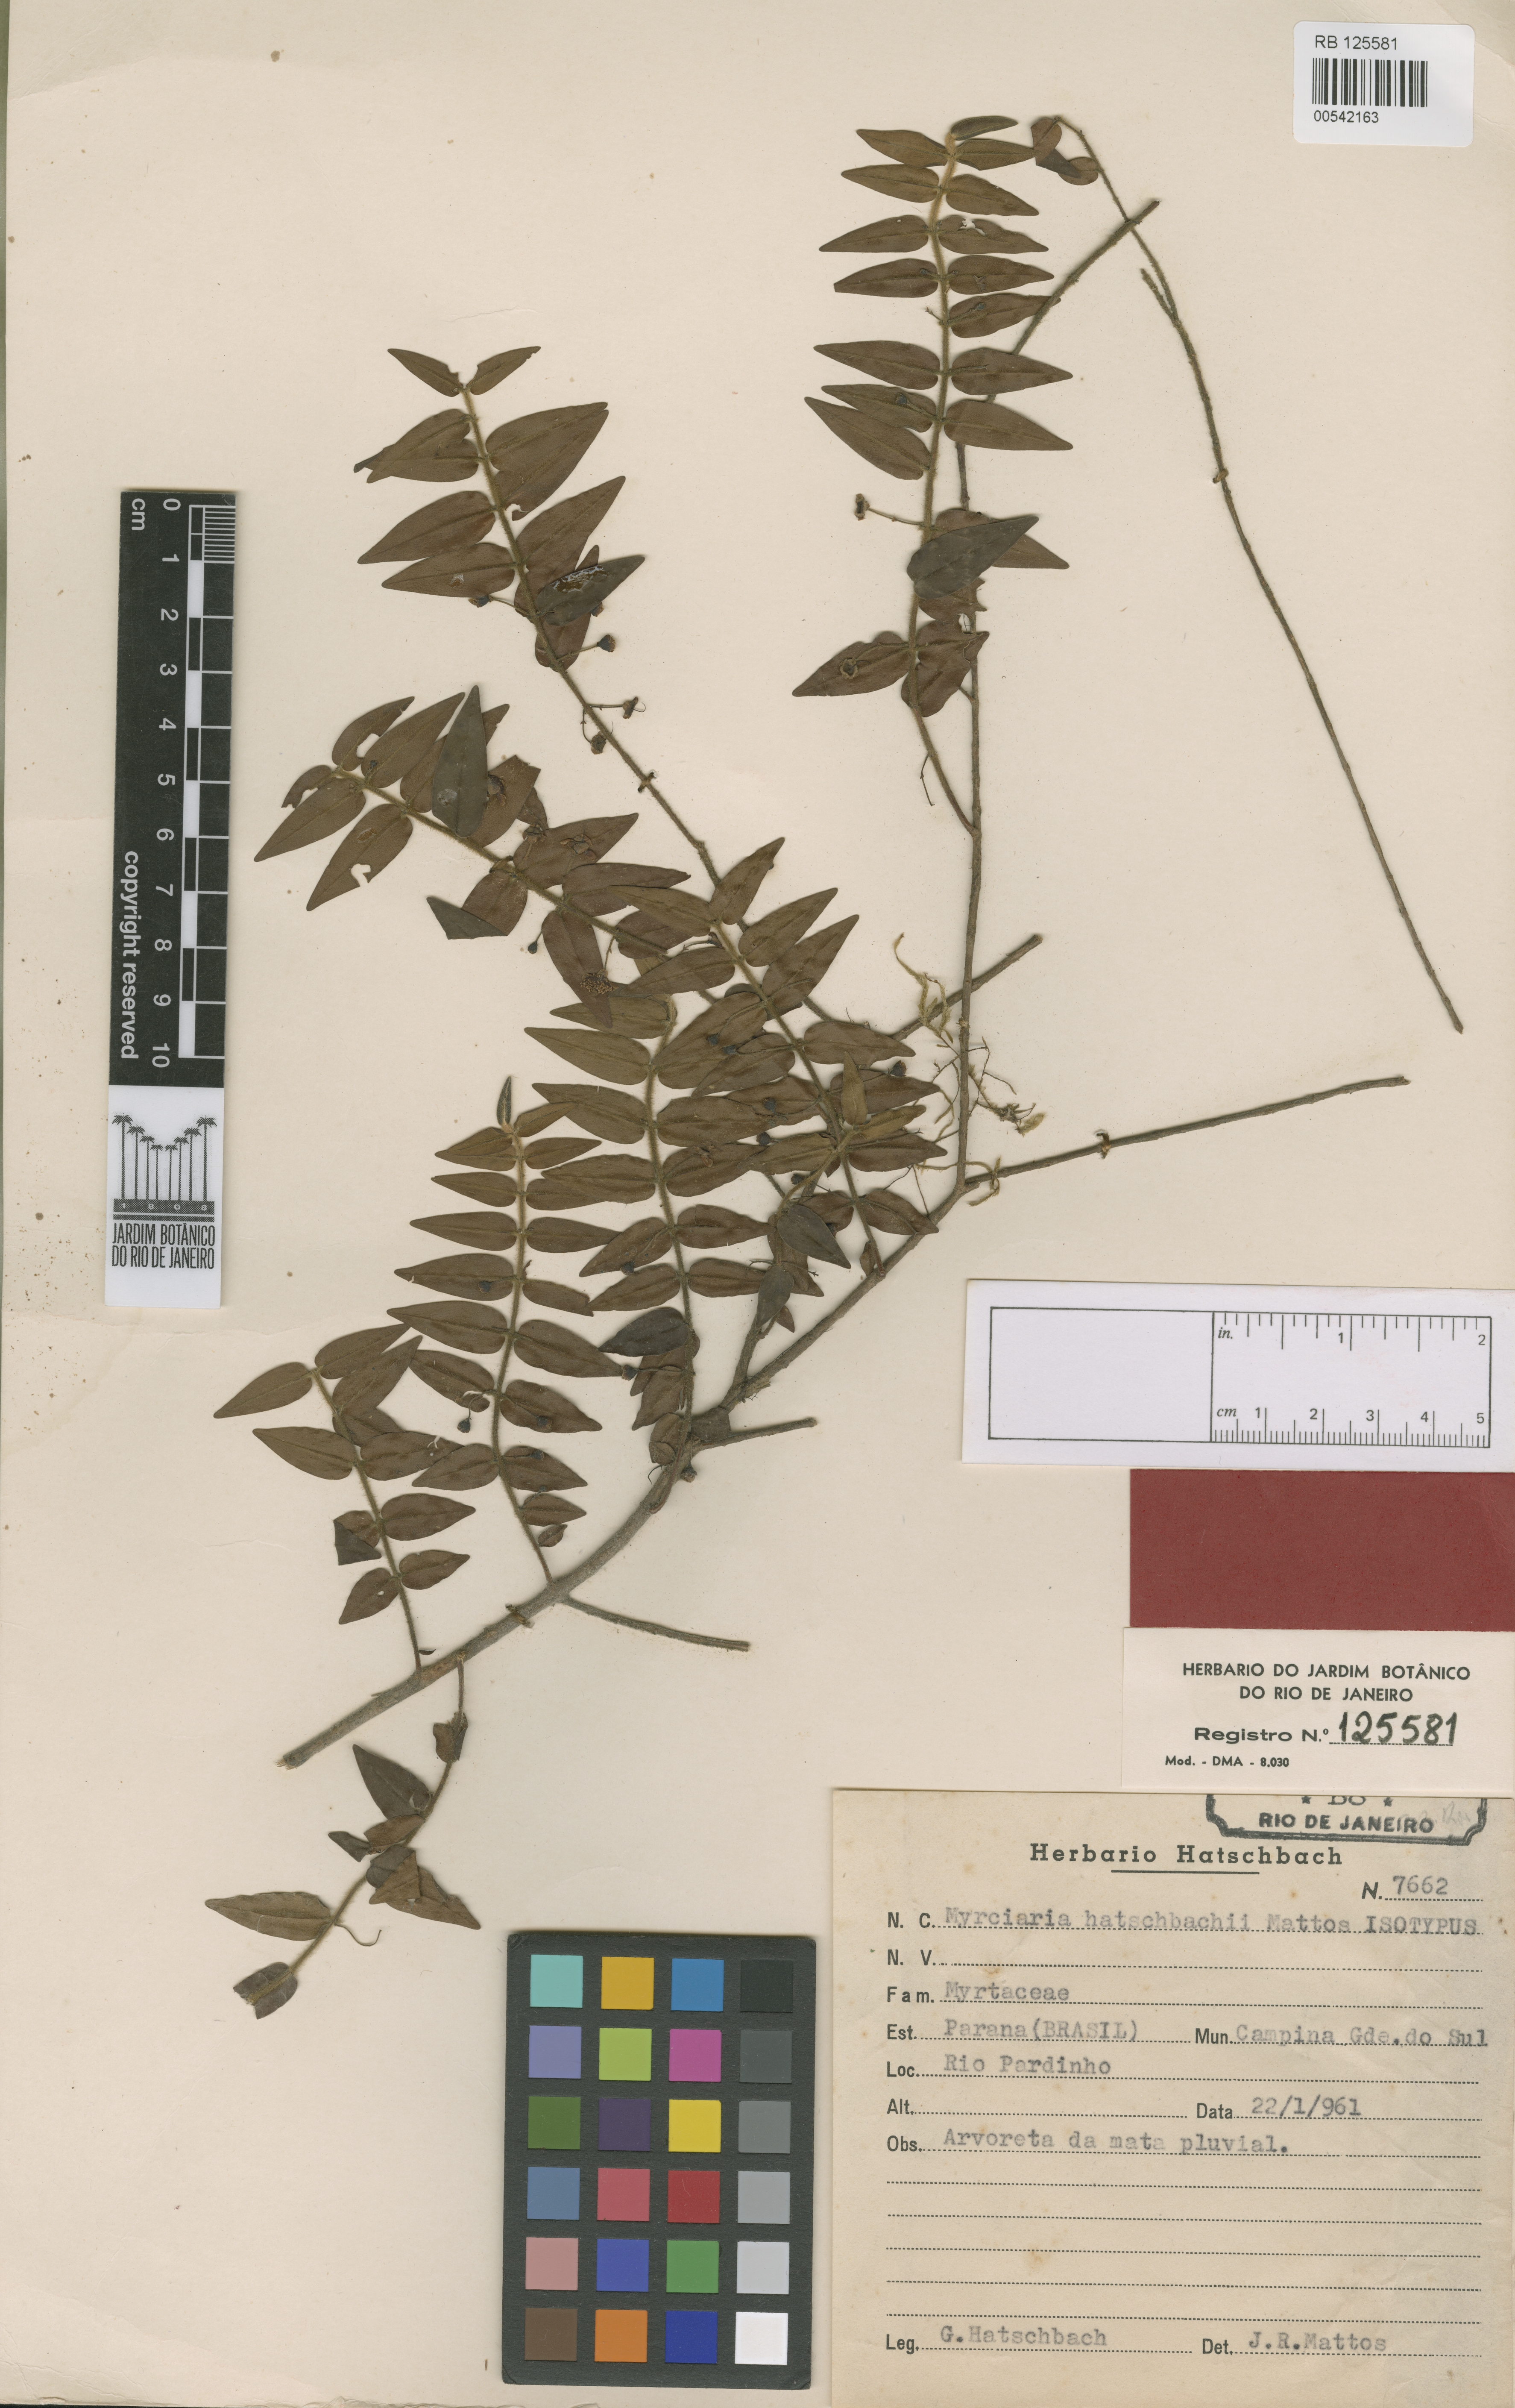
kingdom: Plantae
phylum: Tracheophyta
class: Magnoliopsida
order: Myrtales
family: Myrtaceae
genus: Plinia
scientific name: Plinia hatschbachii
